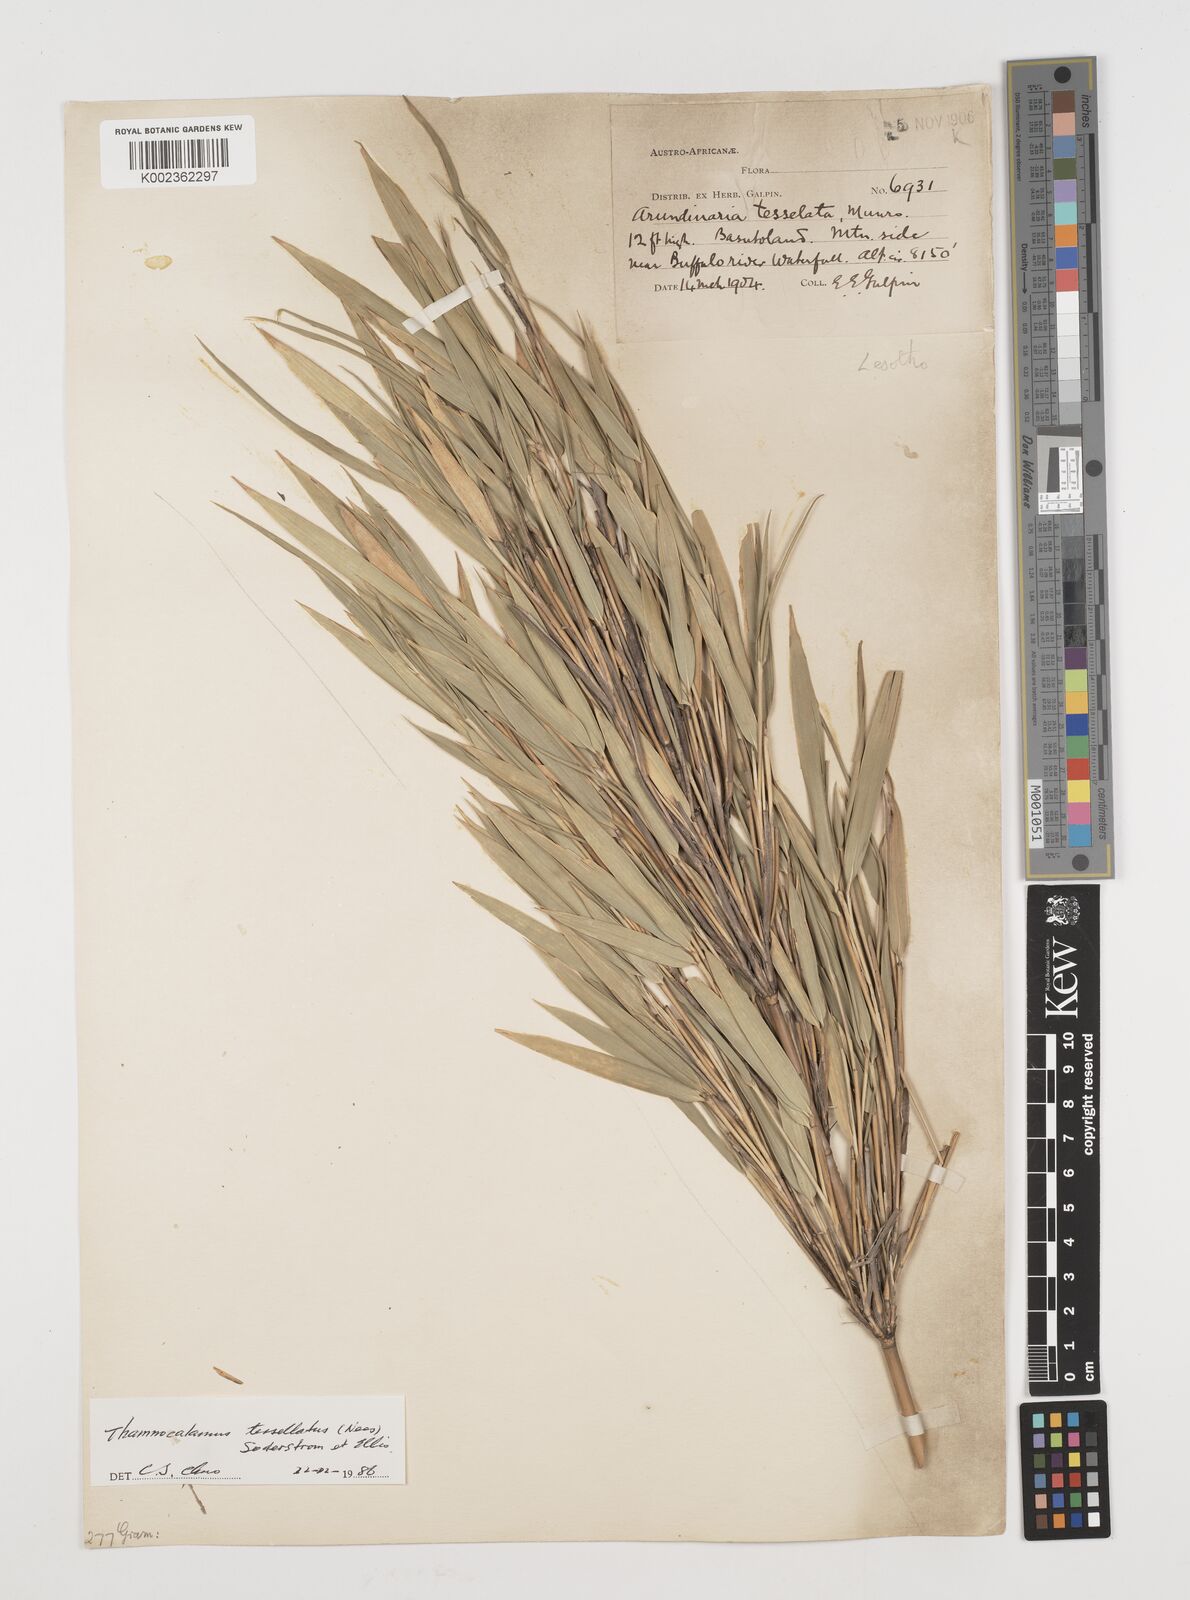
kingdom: Plantae
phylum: Tracheophyta
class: Liliopsida
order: Poales
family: Poaceae
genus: Bergbambos
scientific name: Bergbambos tessellata
